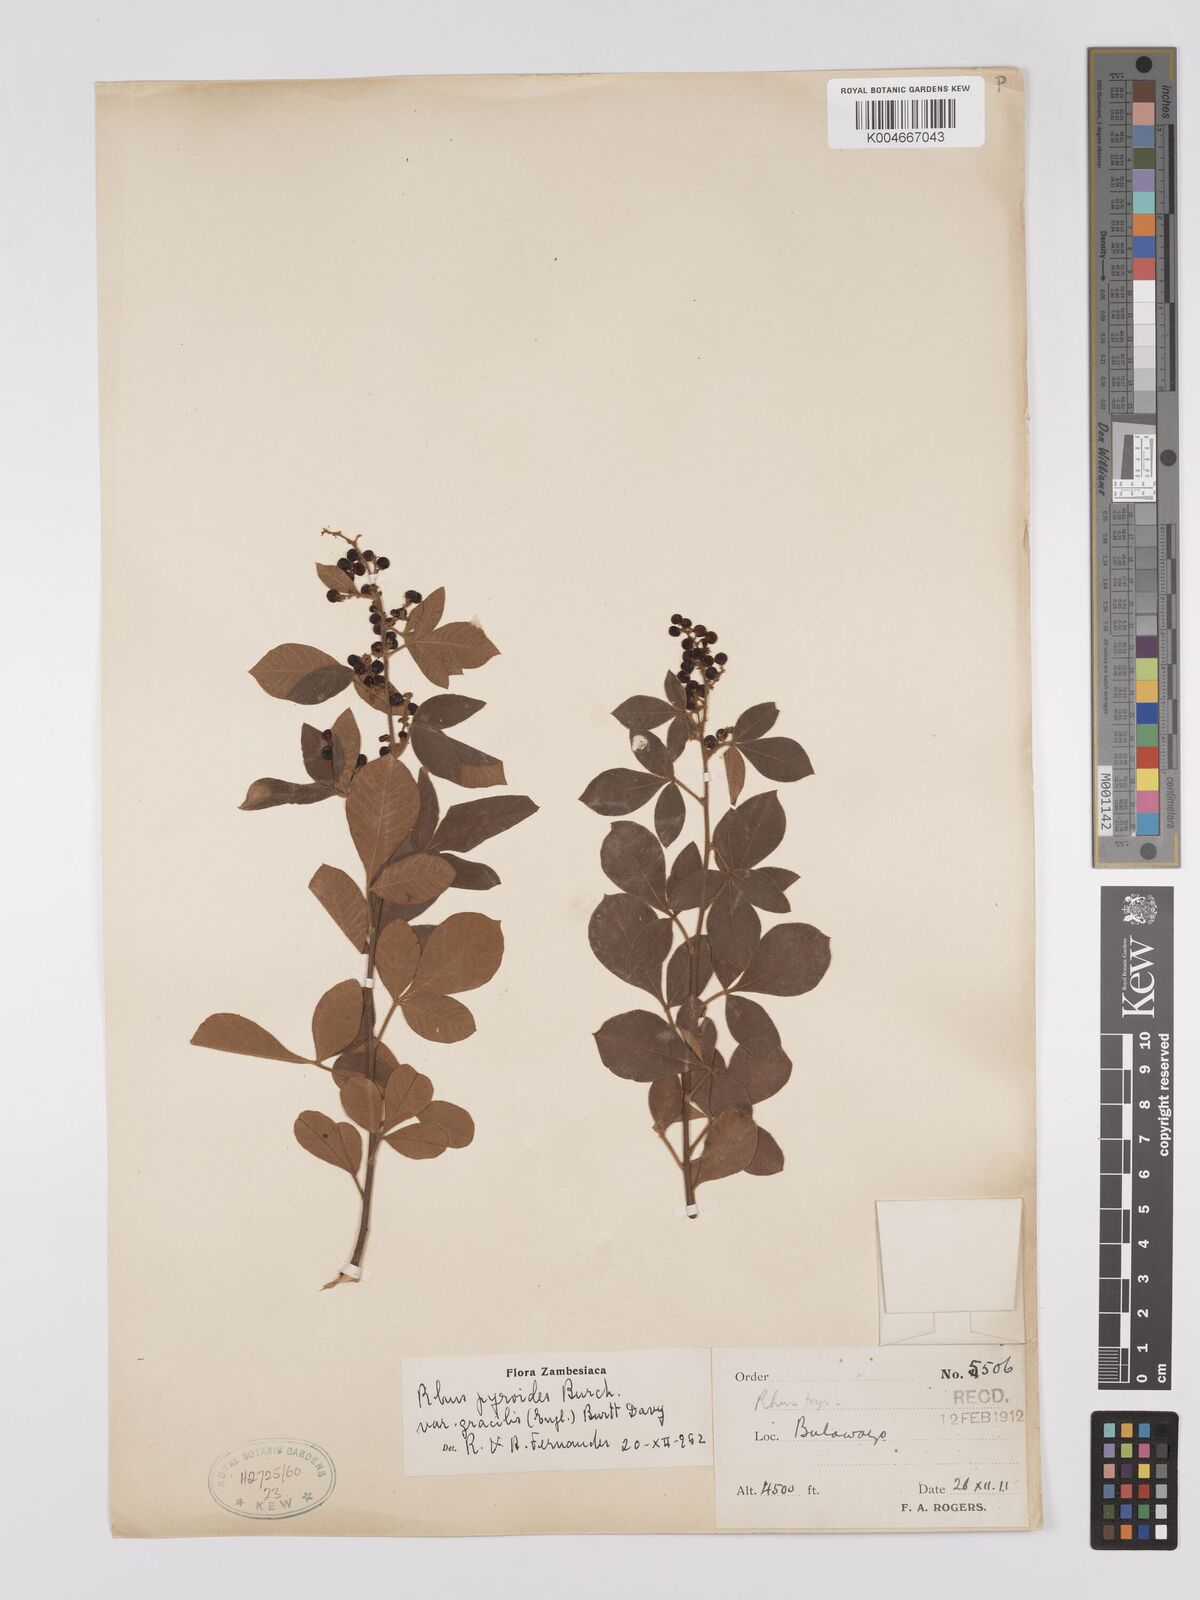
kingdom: Plantae
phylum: Tracheophyta
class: Magnoliopsida
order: Sapindales
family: Anacardiaceae
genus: Rhus
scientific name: Rhus
